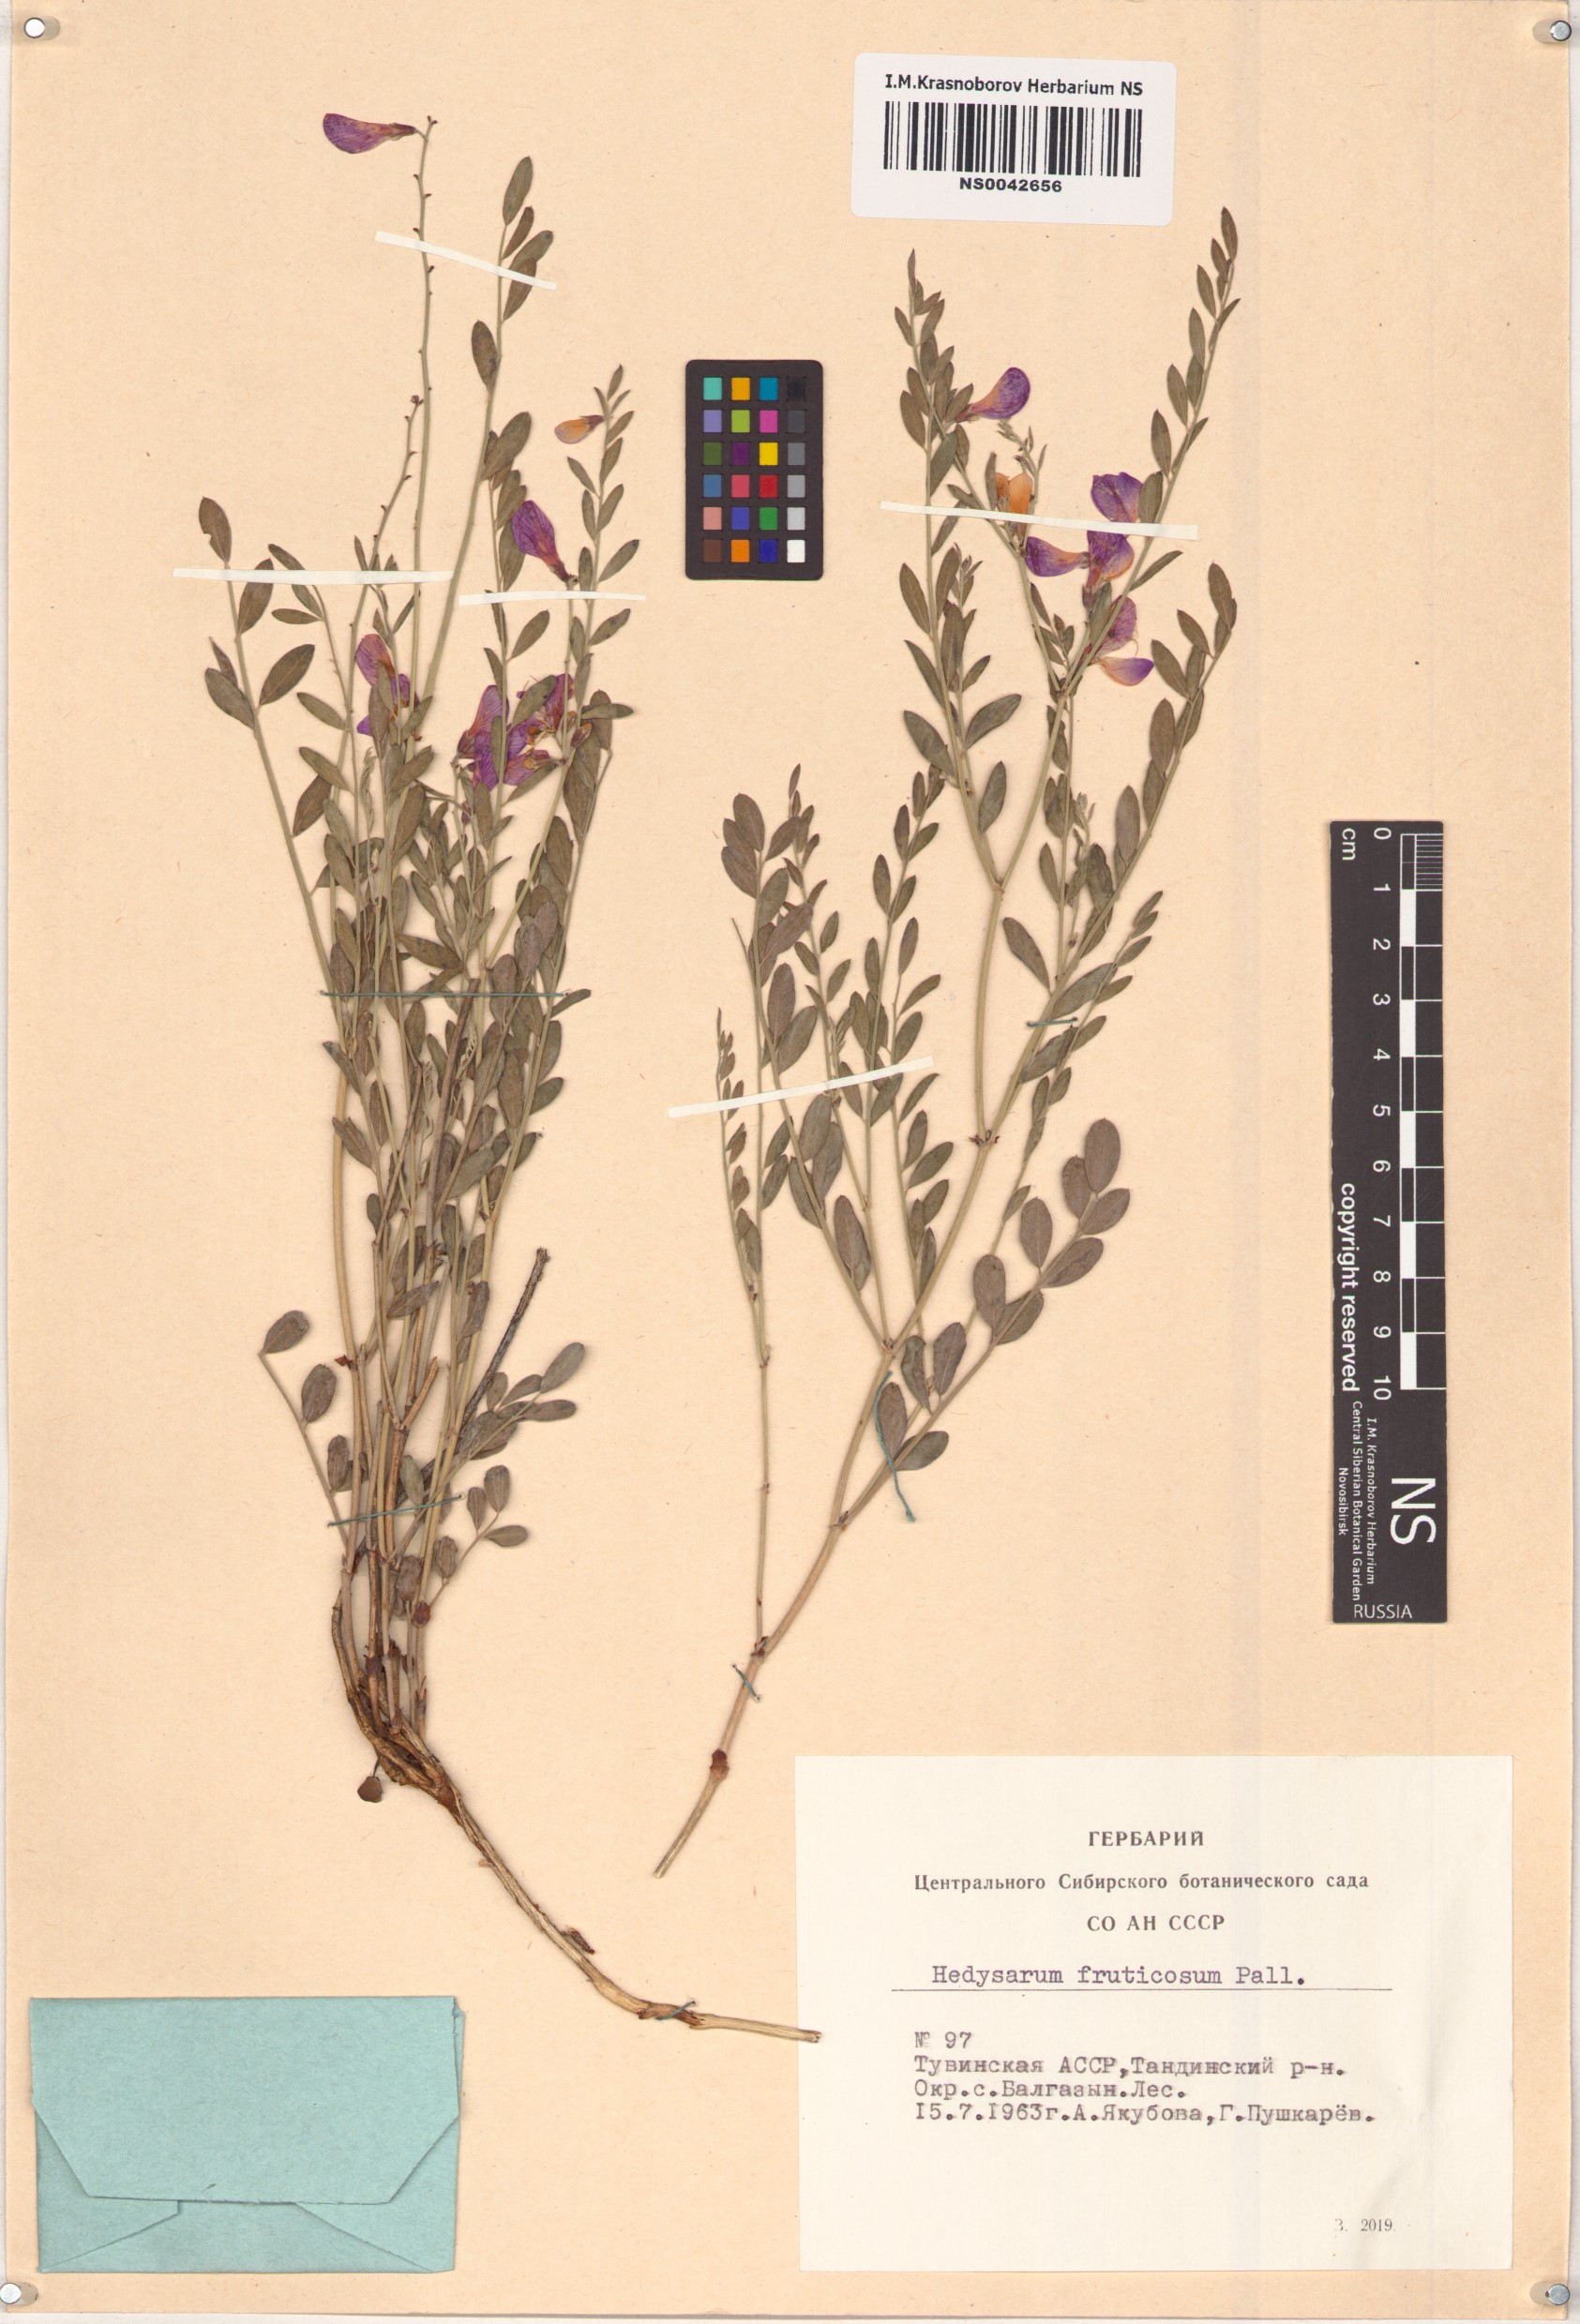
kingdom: Plantae
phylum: Tracheophyta
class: Magnoliopsida
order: Fabales
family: Fabaceae
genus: Corethrodendron
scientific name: Corethrodendron fruticosum
